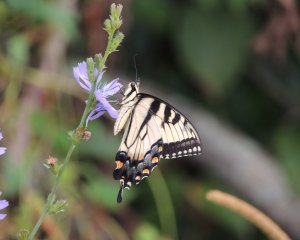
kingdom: Animalia
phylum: Arthropoda
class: Insecta
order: Lepidoptera
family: Papilionidae
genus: Pterourus
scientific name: Pterourus glaucus
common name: Eastern Tiger Swallowtail
